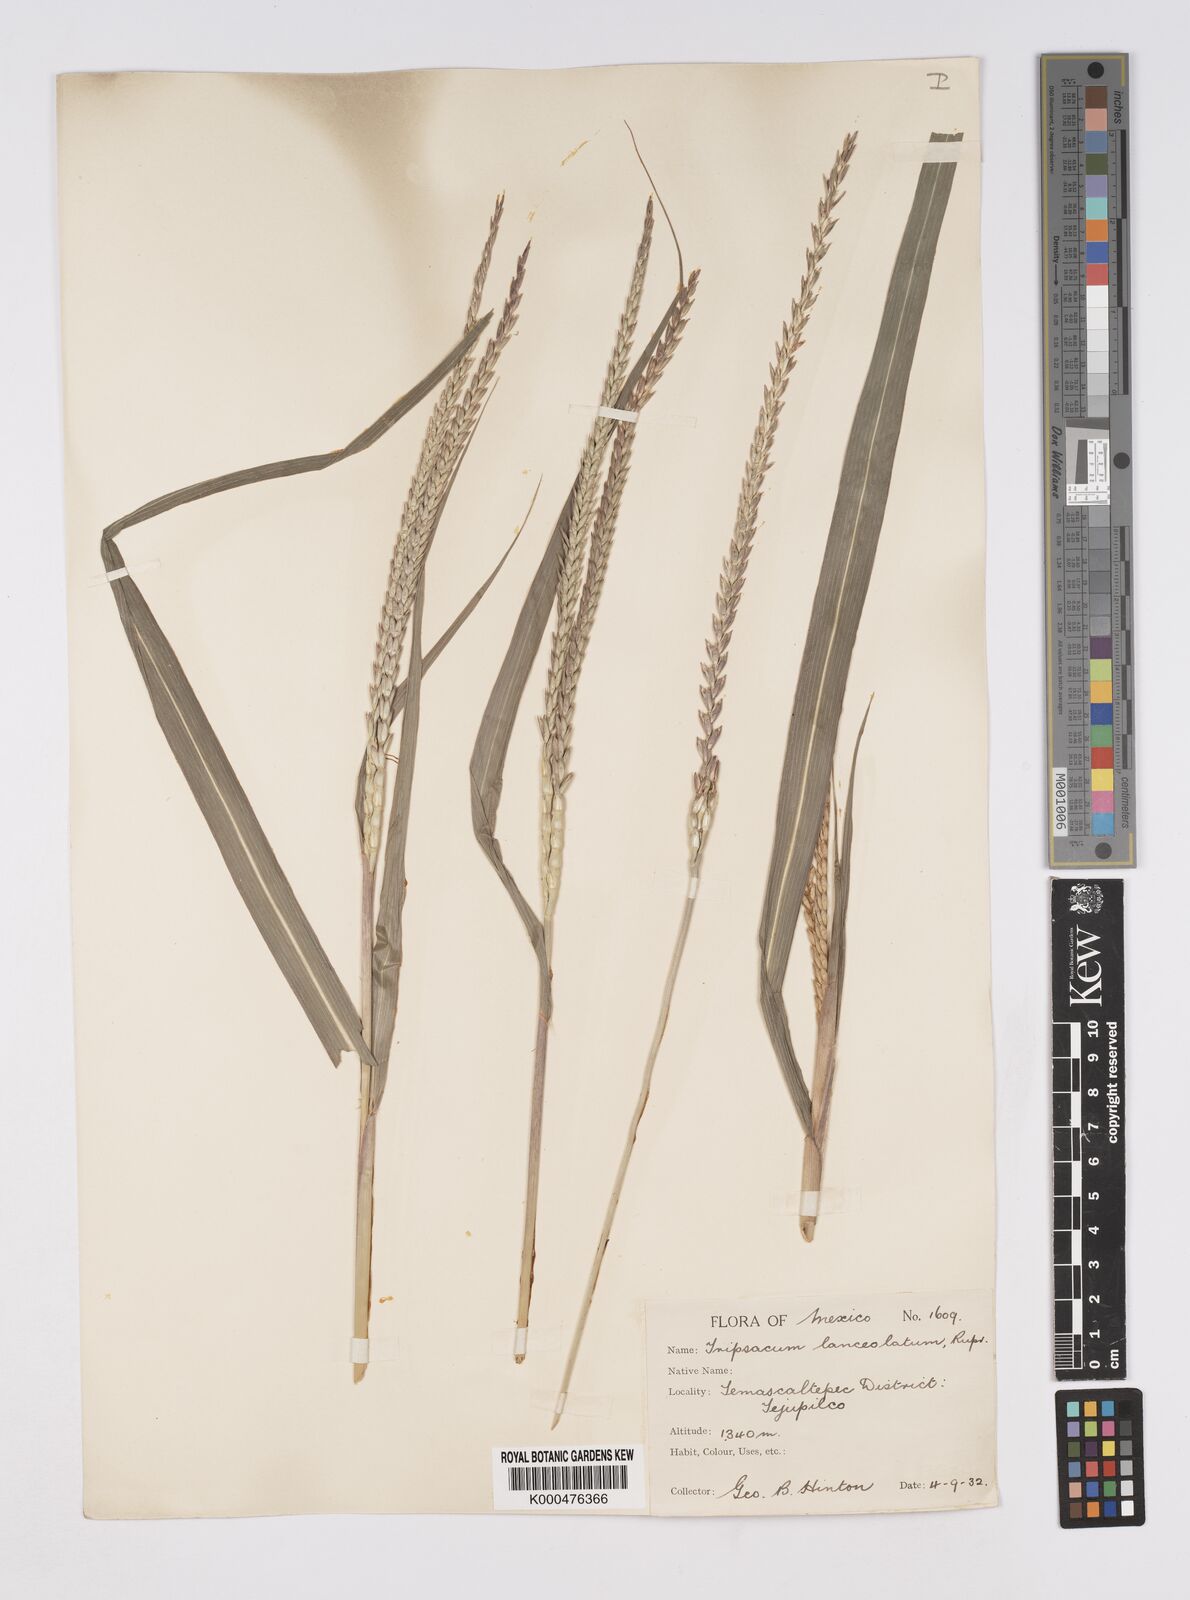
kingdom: Plantae
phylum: Tracheophyta
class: Liliopsida
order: Poales
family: Poaceae
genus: Tripsacum
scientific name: Tripsacum australe
